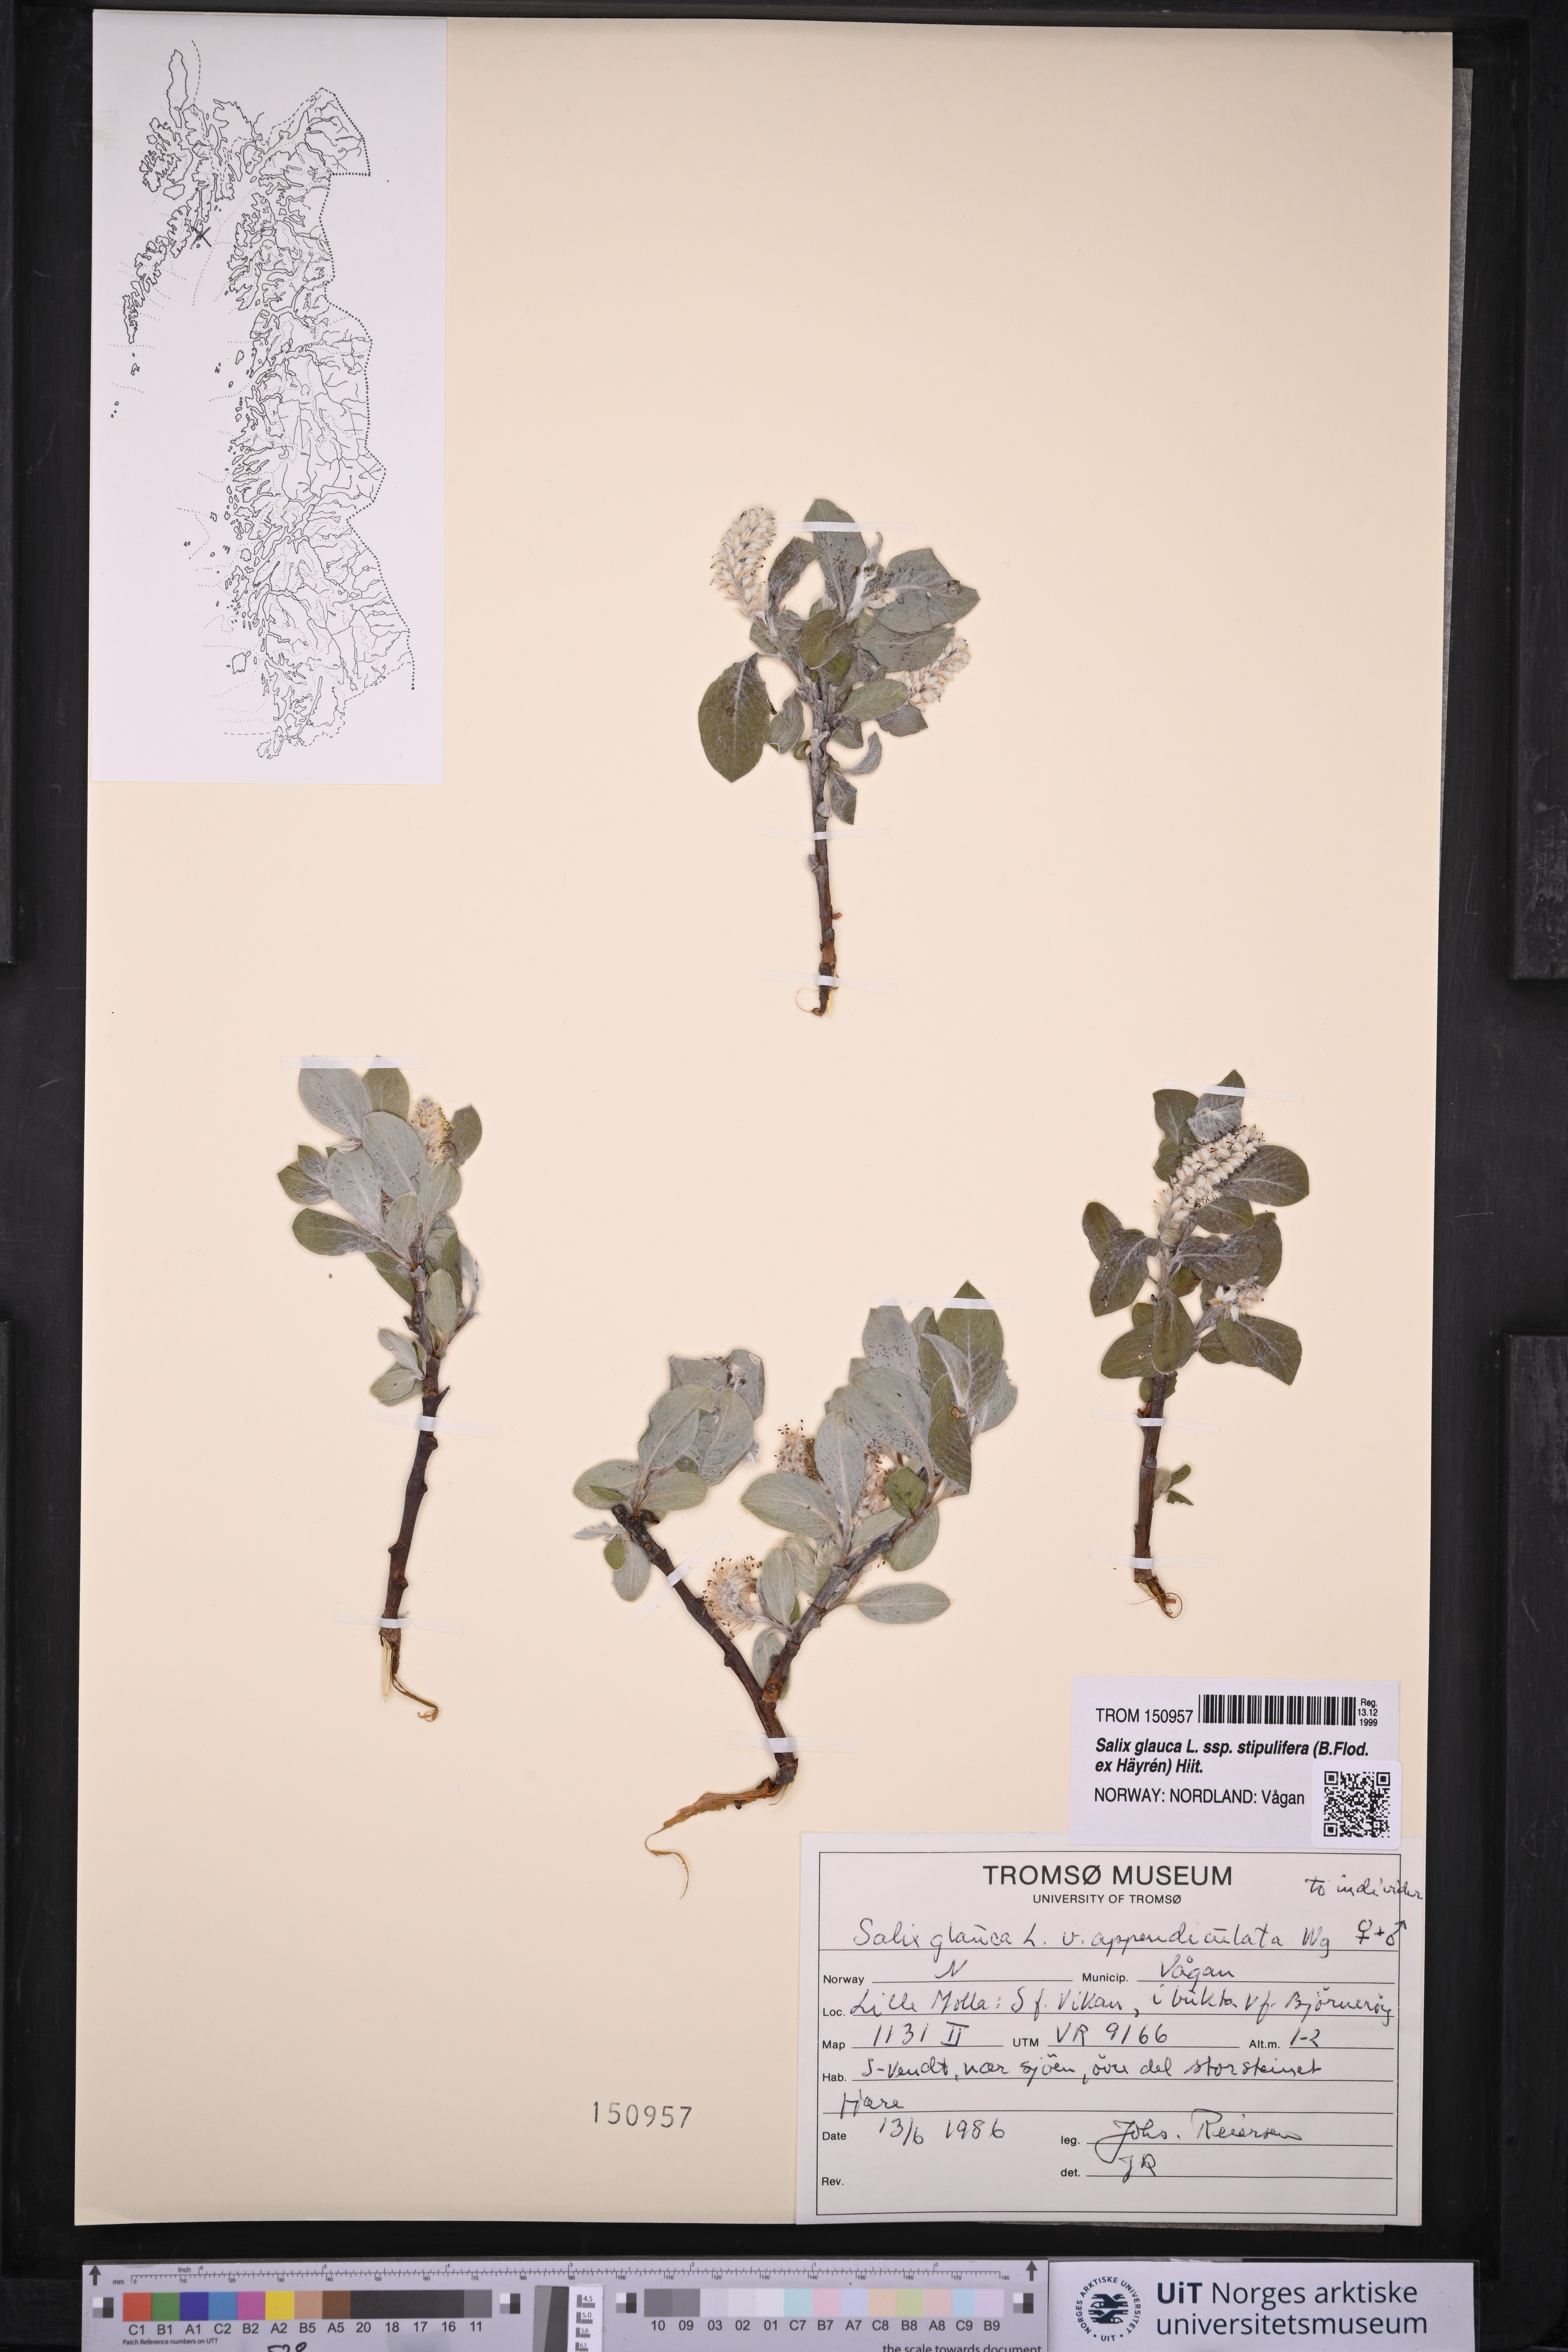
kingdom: Plantae
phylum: Tracheophyta
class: Magnoliopsida
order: Malpighiales
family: Salicaceae
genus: Salix
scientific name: Salix glauca
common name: Glaucous willow
